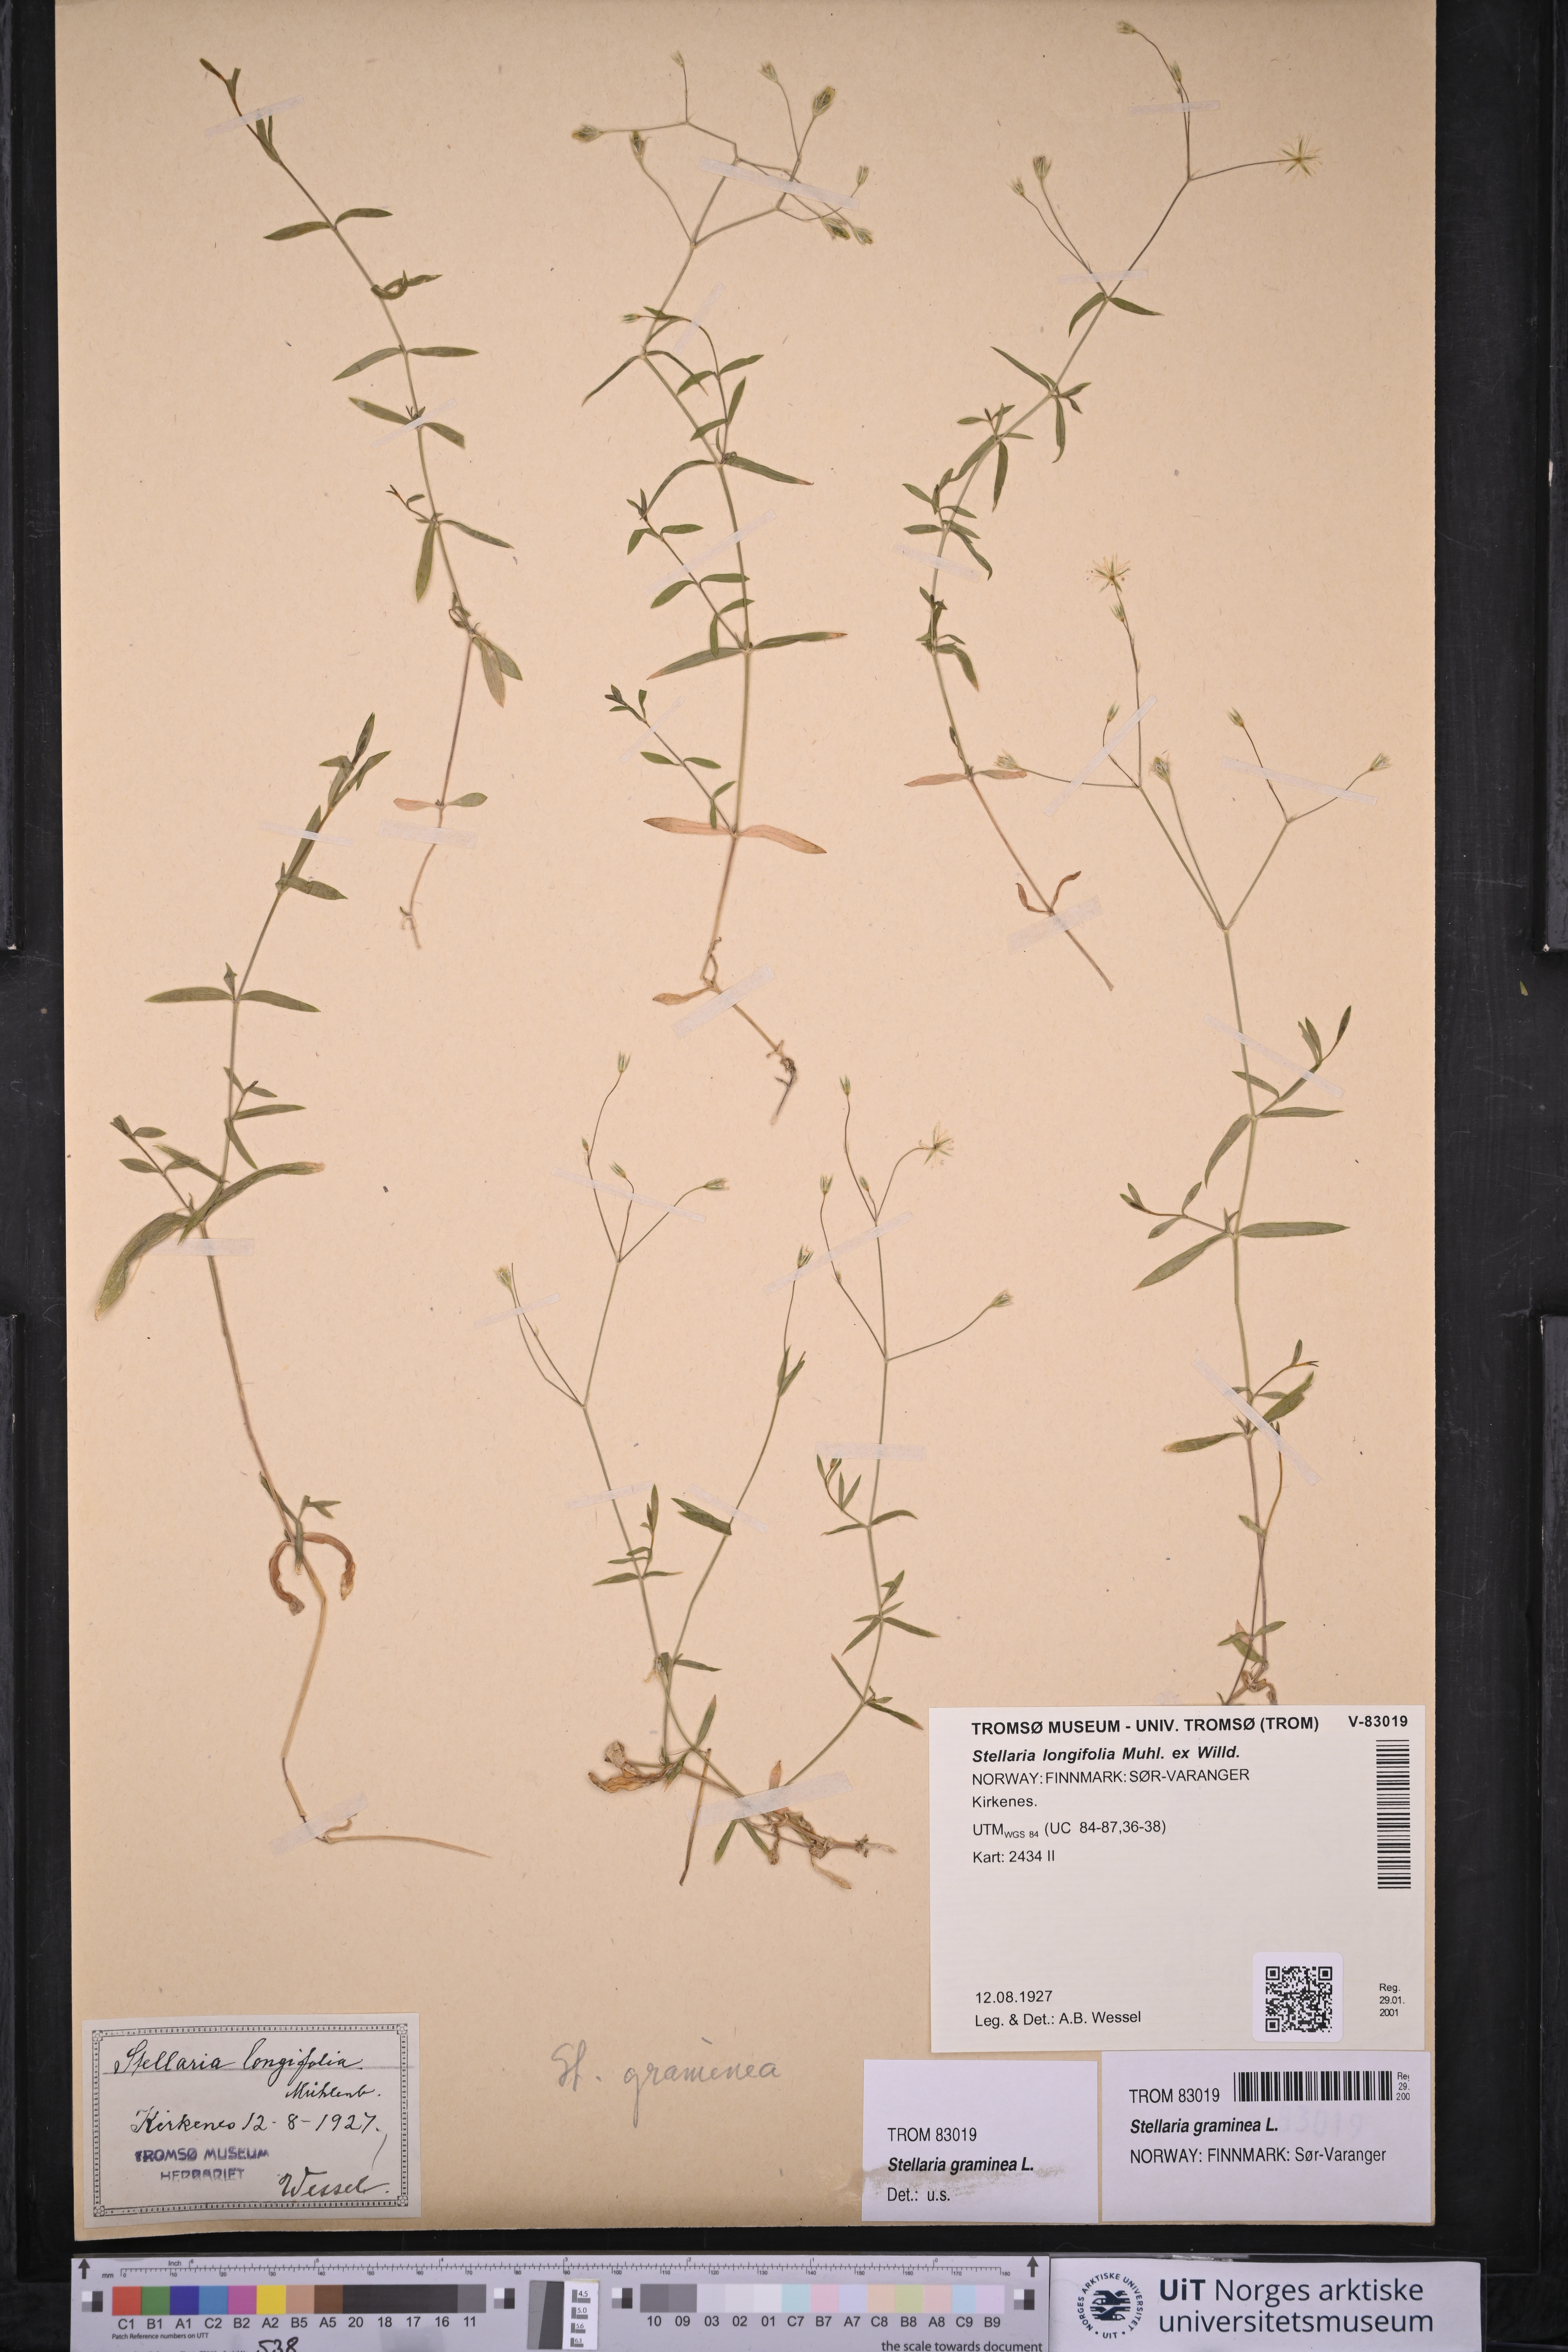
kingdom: Plantae
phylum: Tracheophyta
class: Magnoliopsida
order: Caryophyllales
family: Caryophyllaceae
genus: Stellaria
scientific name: Stellaria graminea
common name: Grass-like starwort
